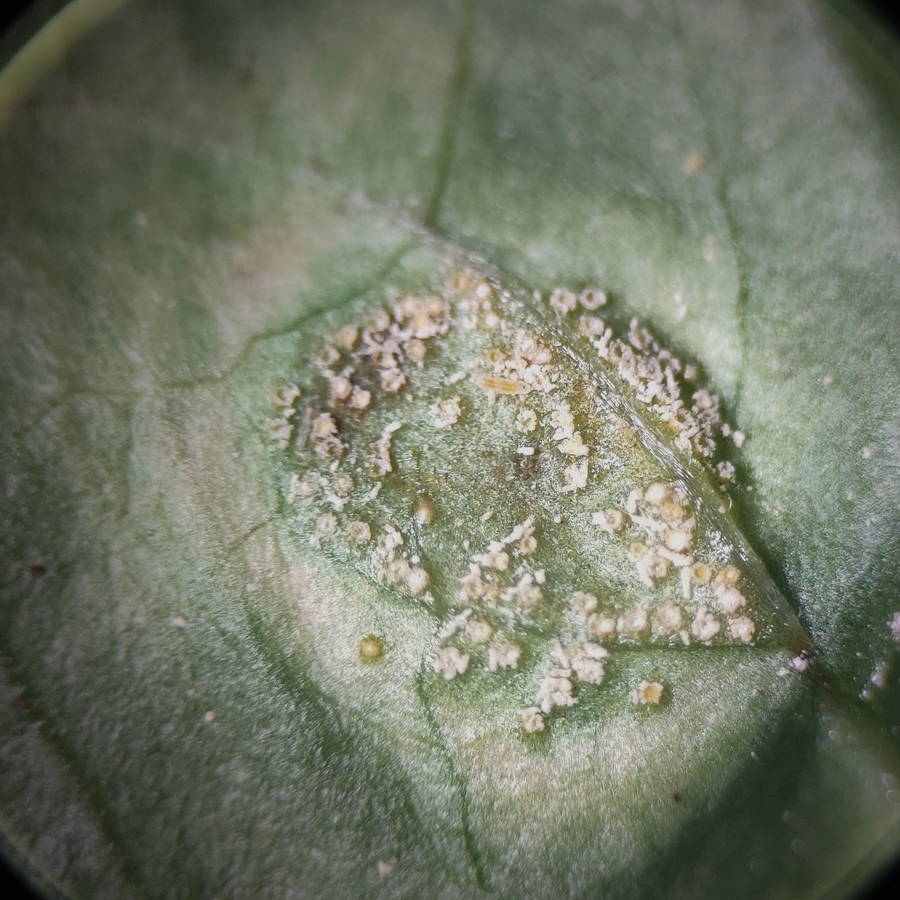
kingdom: Fungi
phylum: Basidiomycota
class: Pucciniomycetes
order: Pucciniales
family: Pucciniaceae
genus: Puccinia
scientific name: Puccinia circaeae-caricis
